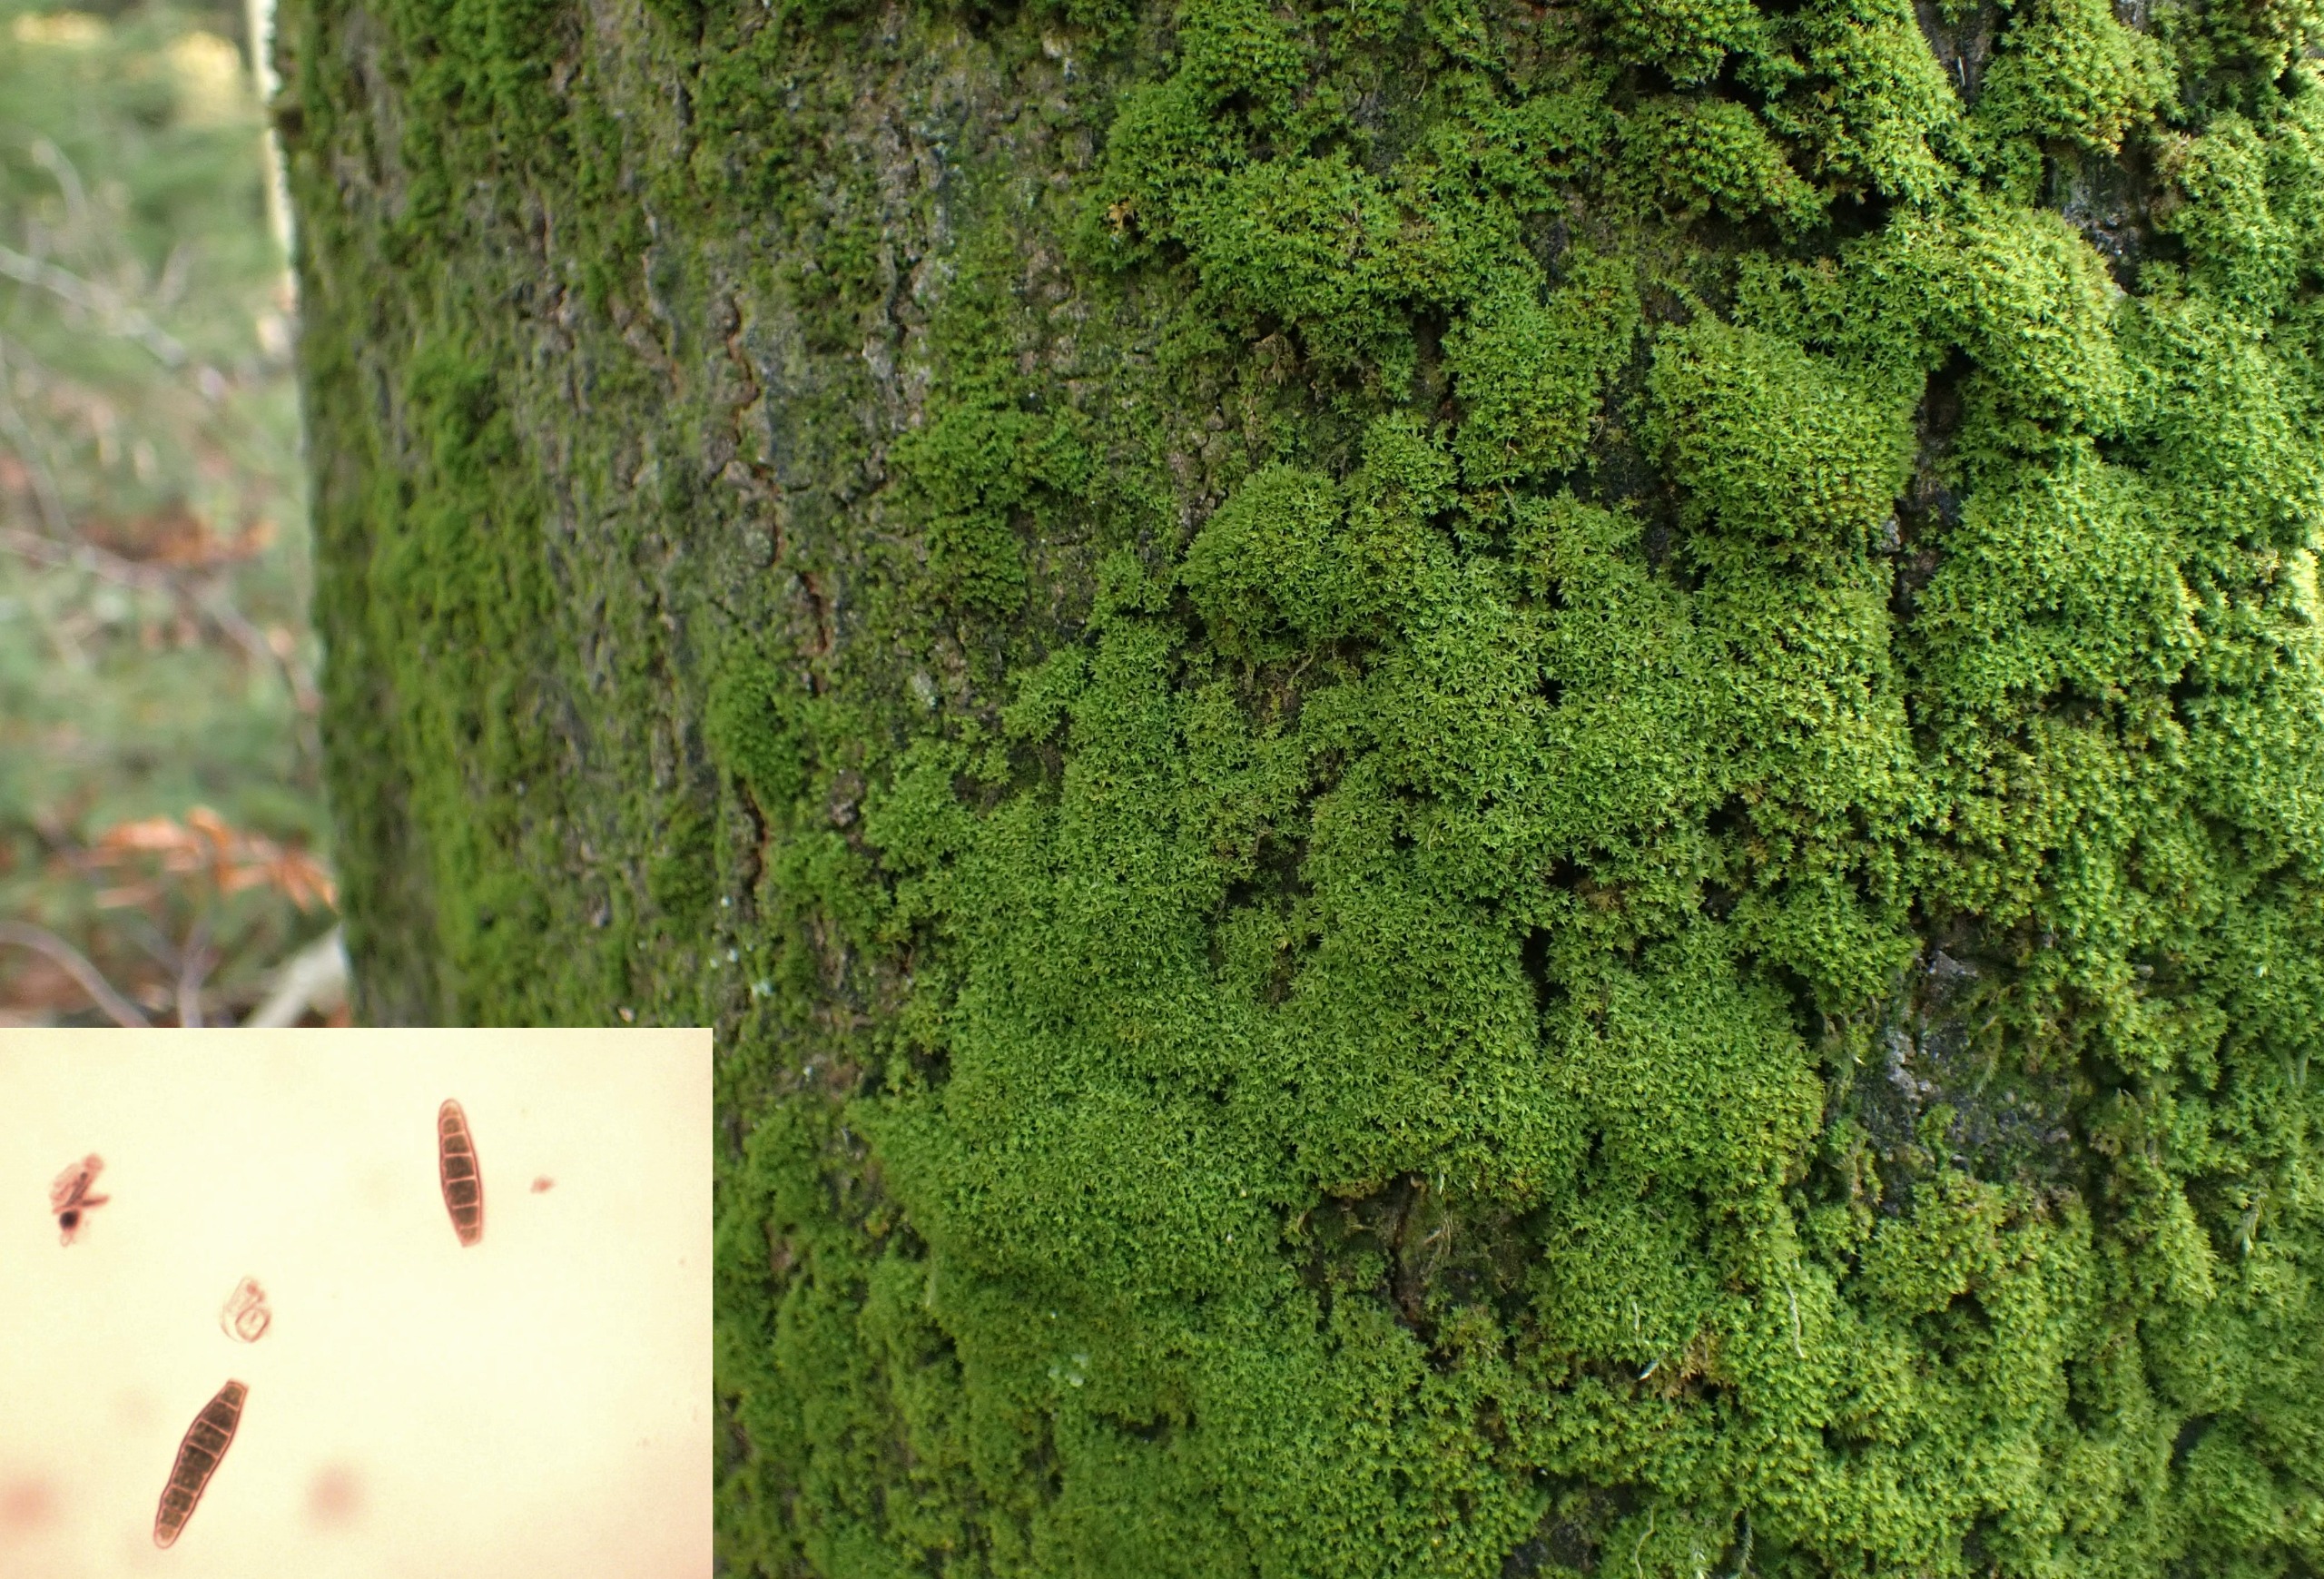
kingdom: Plantae
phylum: Bryophyta
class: Bryopsida
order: Orthotrichales
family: Orthotrichaceae
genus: Zygodon
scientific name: Zygodon conoideus
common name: Tand-køllemos
